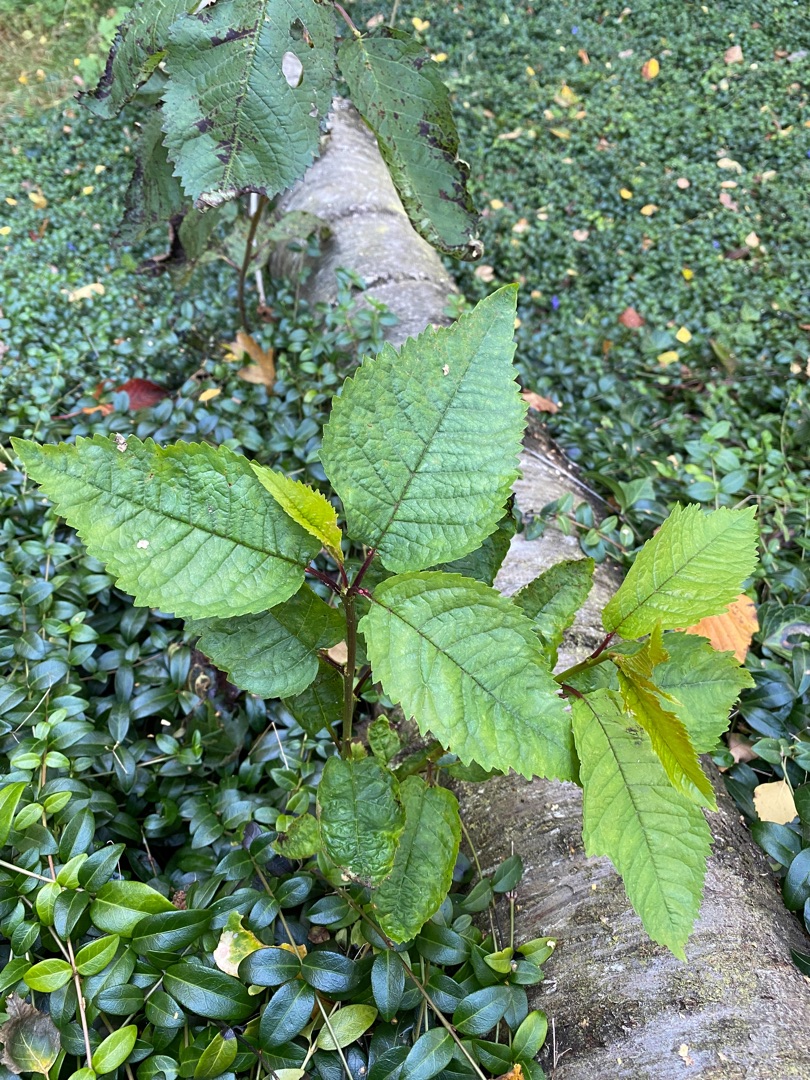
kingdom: Plantae
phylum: Tracheophyta
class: Magnoliopsida
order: Rosales
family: Rosaceae
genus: Prunus
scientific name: Prunus avium
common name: Fugle-kirsebær
